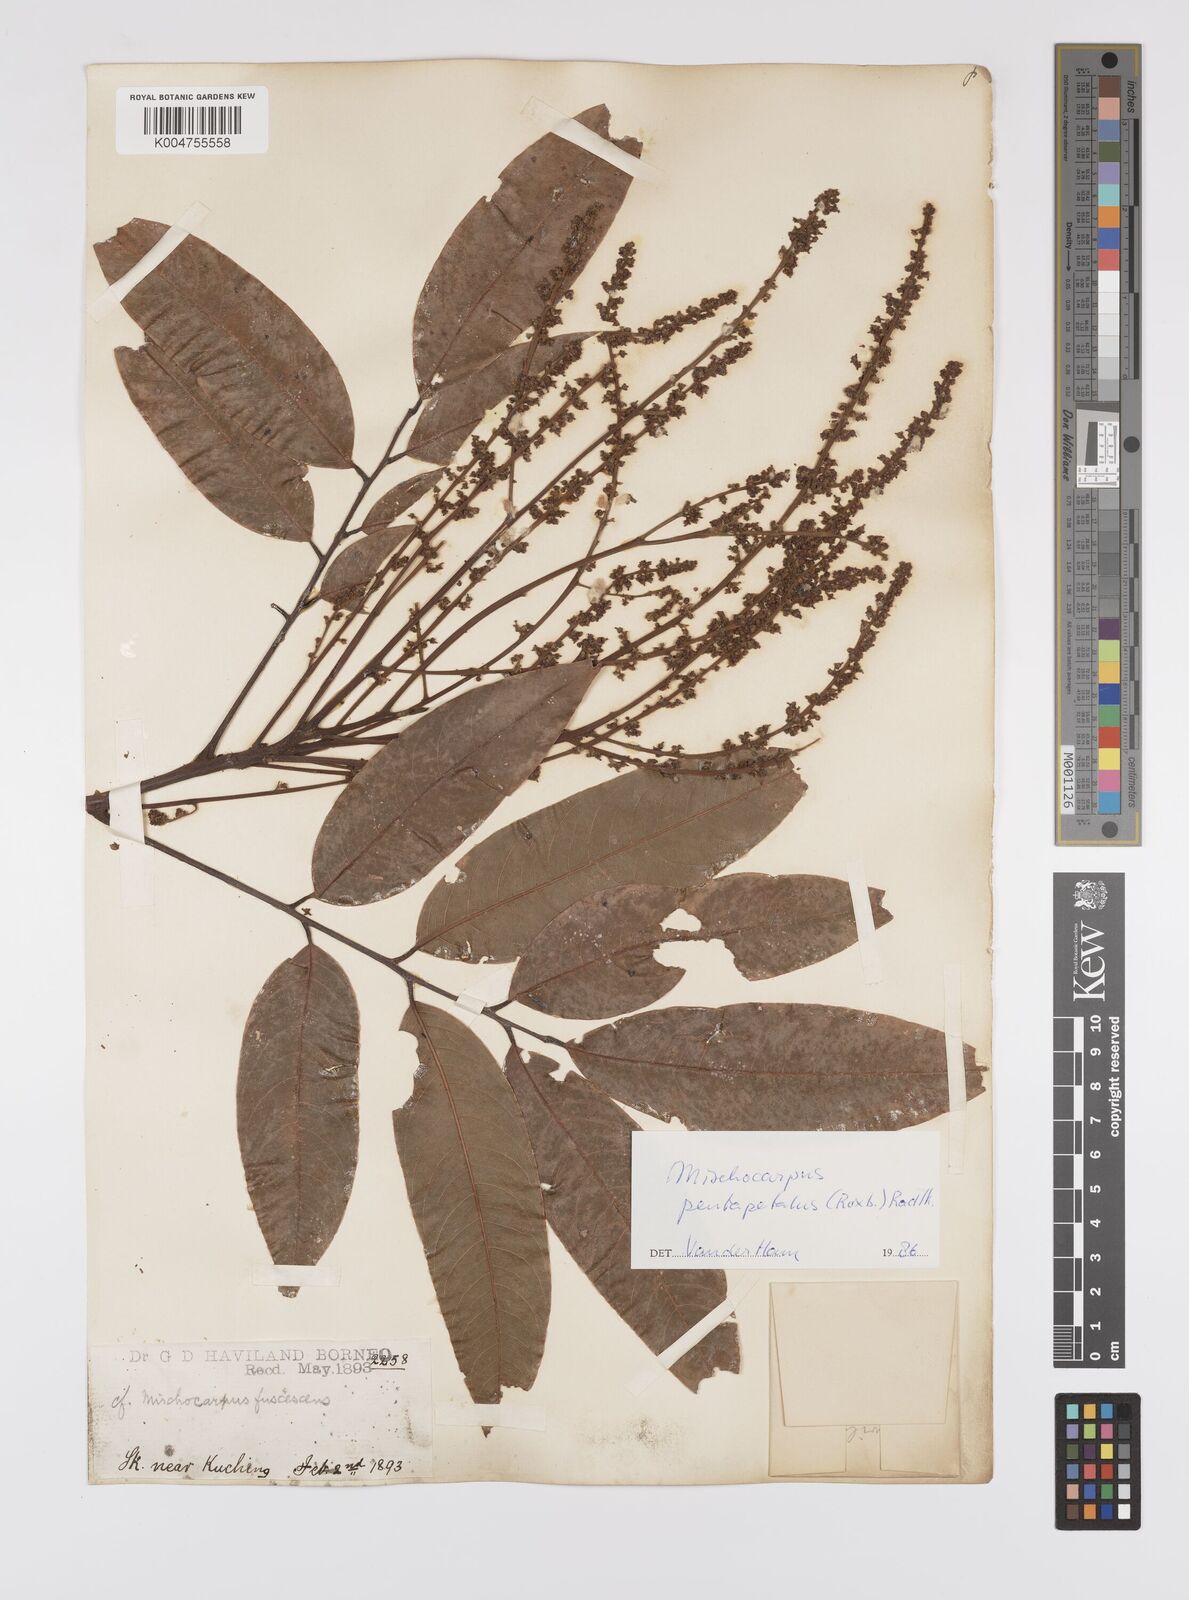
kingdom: Plantae
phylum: Tracheophyta
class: Magnoliopsida
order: Sapindales
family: Sapindaceae
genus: Mischocarpus
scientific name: Mischocarpus pentapetalus
